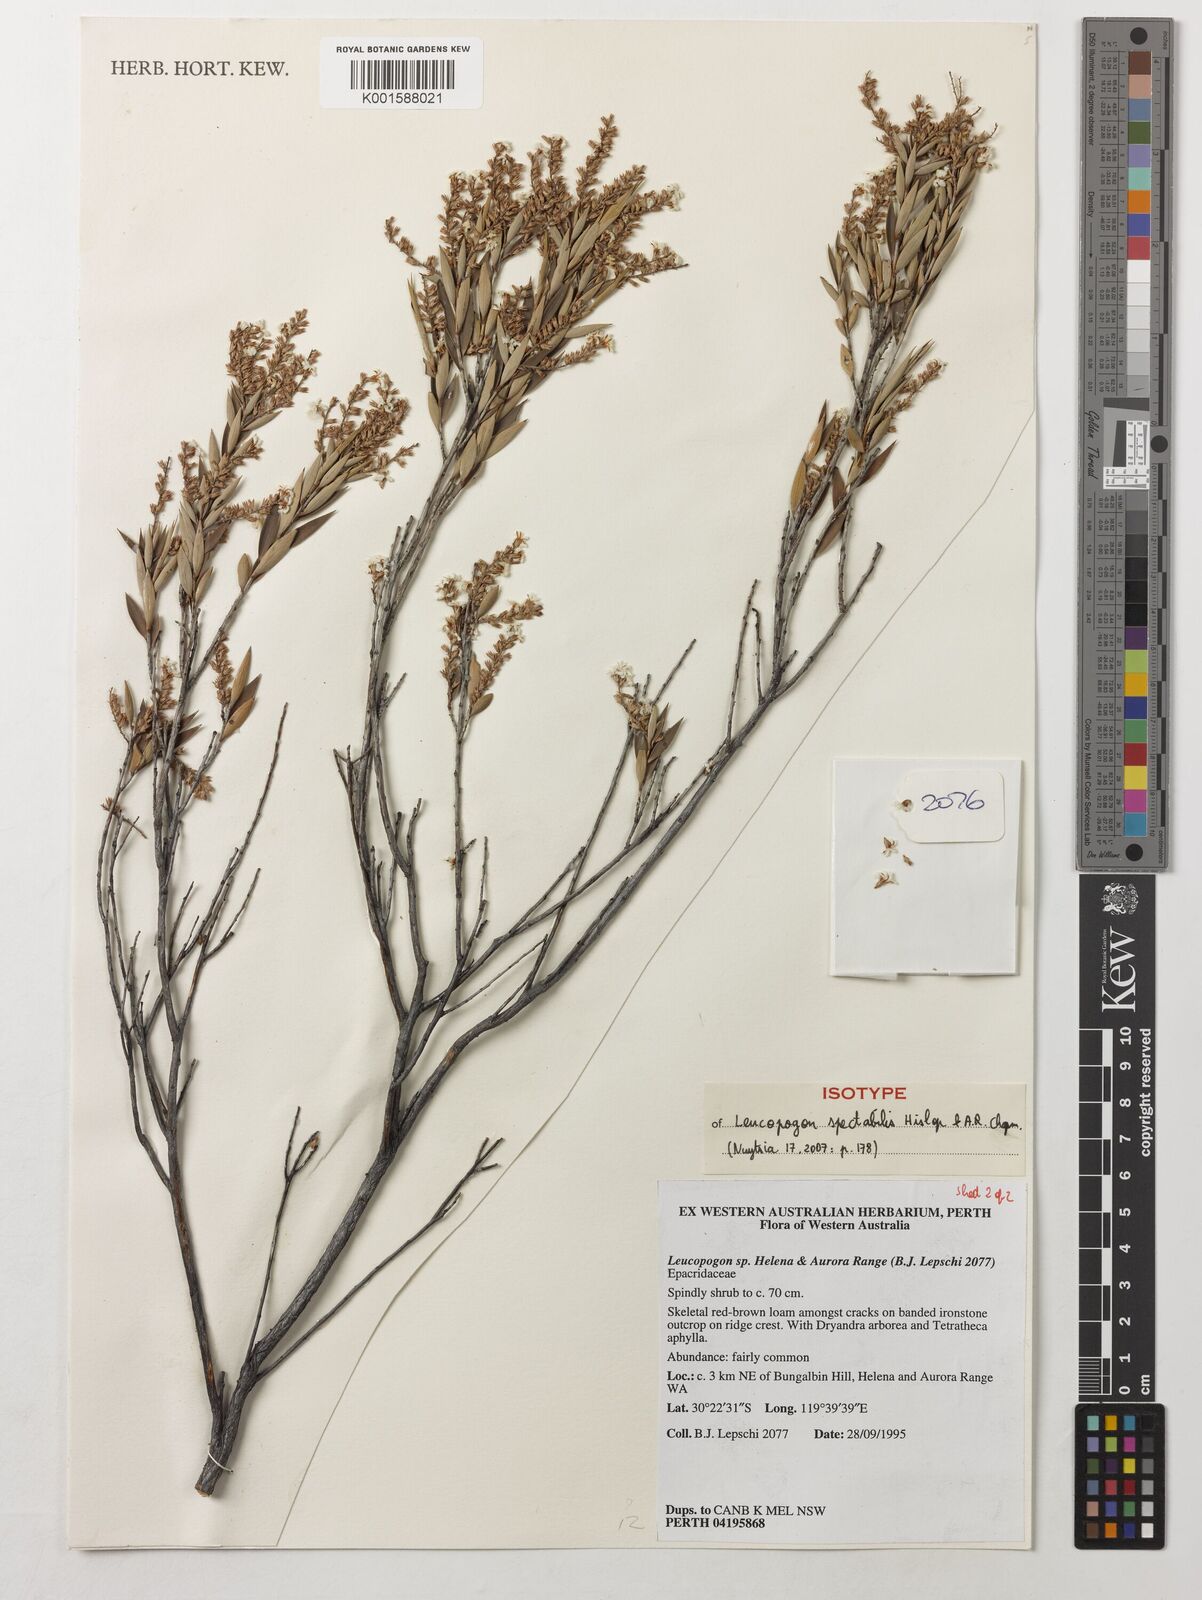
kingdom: Plantae
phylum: Tracheophyta
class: Magnoliopsida
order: Ericales
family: Ericaceae
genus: Leucopogon
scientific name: Leucopogon spectabilis
